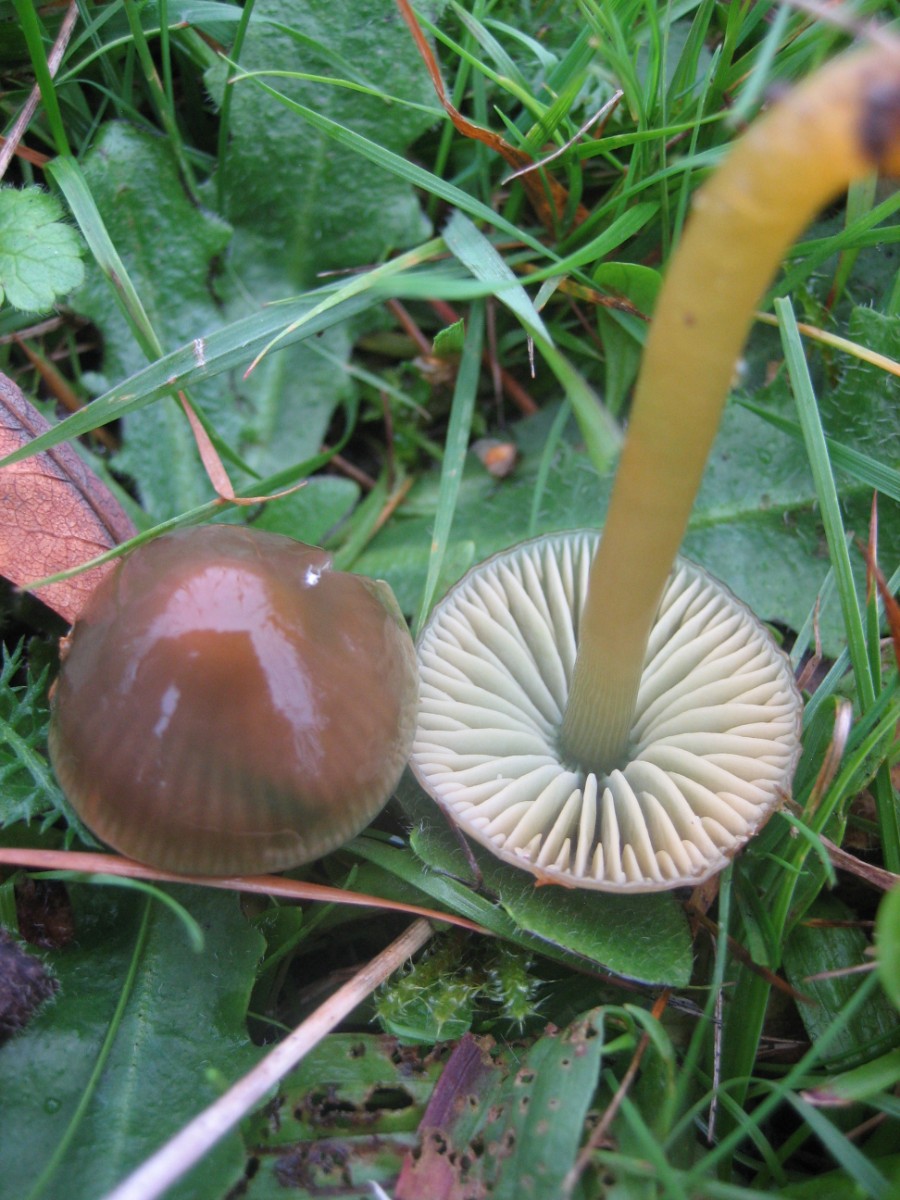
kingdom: Fungi
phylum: Basidiomycota
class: Agaricomycetes
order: Agaricales
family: Hygrophoraceae
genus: Gliophorus
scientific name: Gliophorus psittacinus
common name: papegøje-vokshat
